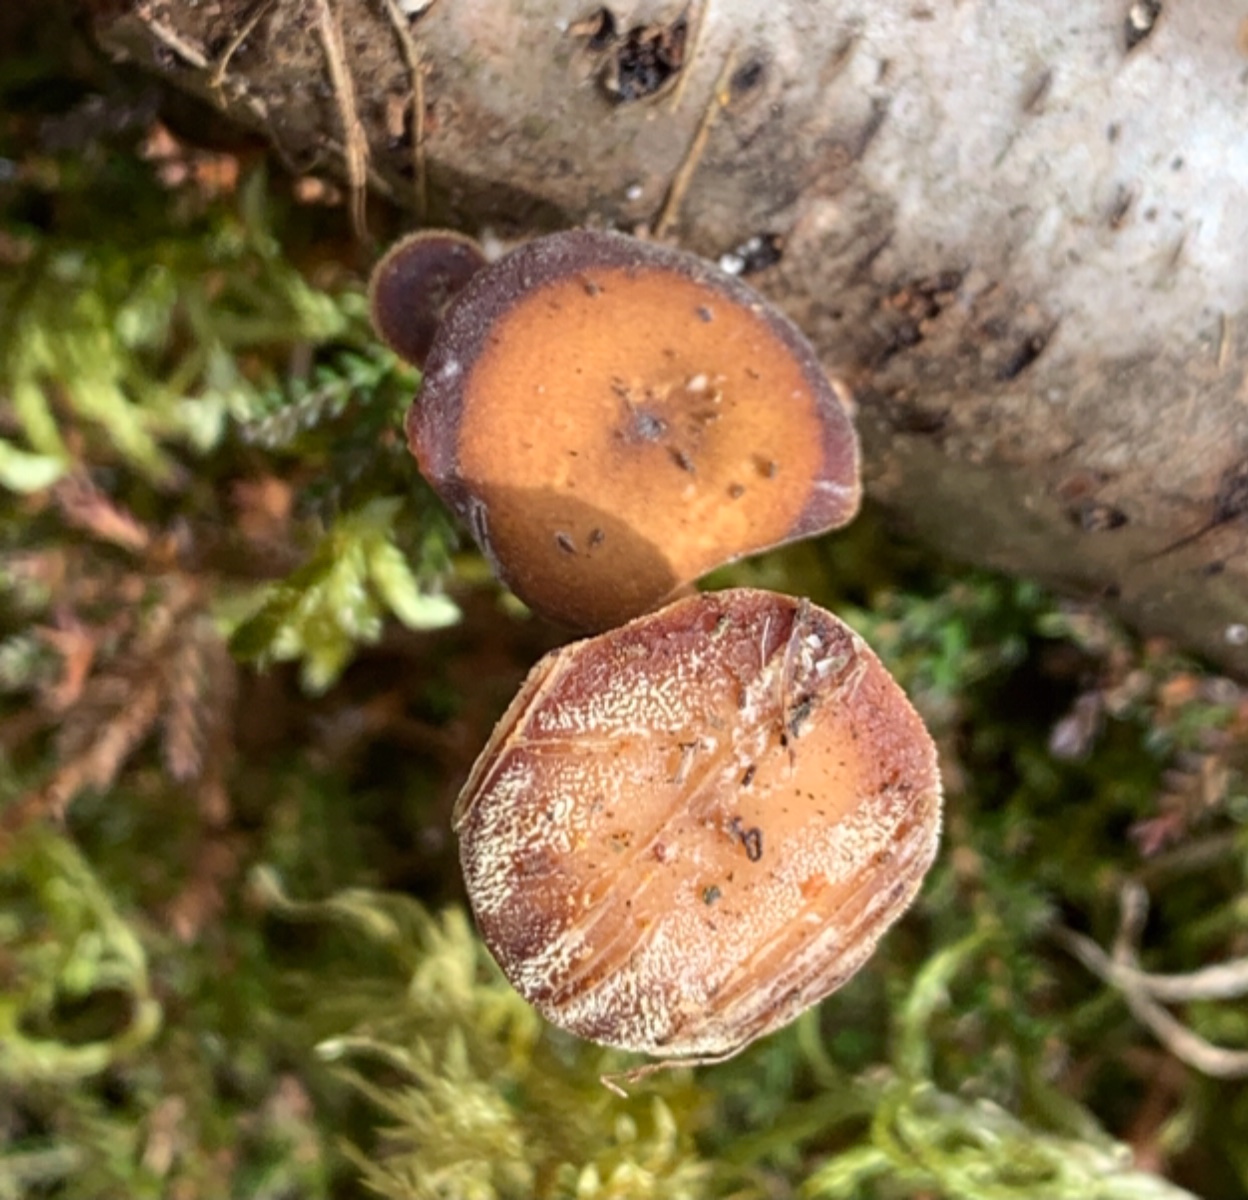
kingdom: Fungi
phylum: Basidiomycota
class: Agaricomycetes
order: Polyporales
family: Polyporaceae
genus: Lentinus
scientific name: Lentinus brumalis
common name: vinter-stilkporesvamp
